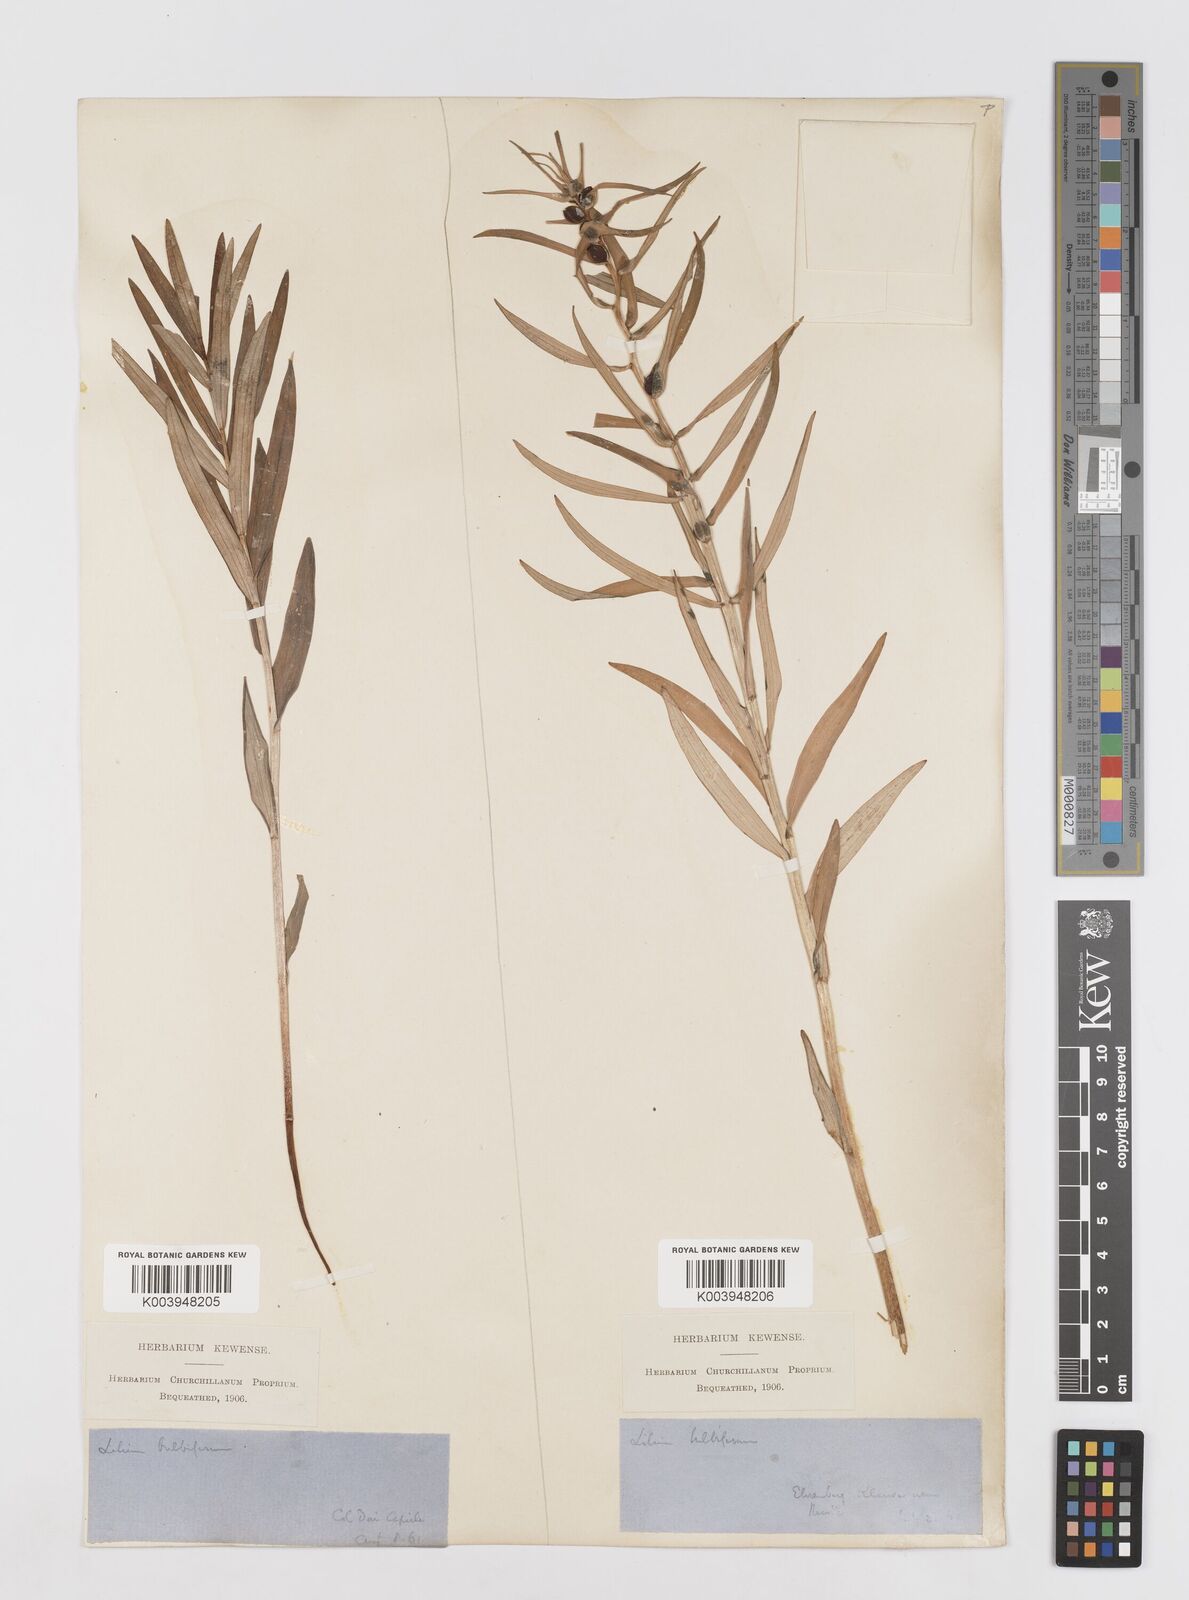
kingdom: Plantae
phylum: Tracheophyta
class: Liliopsida
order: Liliales
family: Liliaceae
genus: Lilium
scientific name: Lilium bulbiferum
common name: Orange lily
